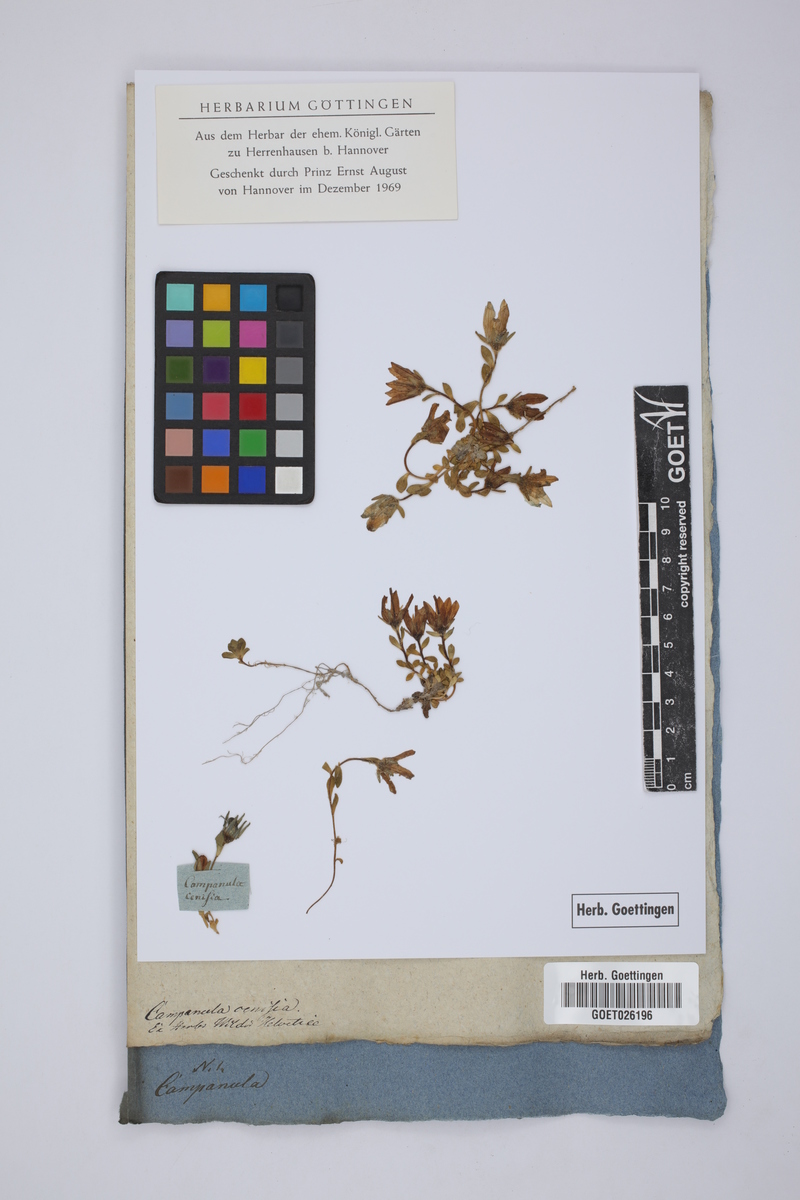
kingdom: Plantae
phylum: Tracheophyta
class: Magnoliopsida
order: Asterales
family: Campanulaceae
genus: Campanula
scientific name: Campanula cenisia
